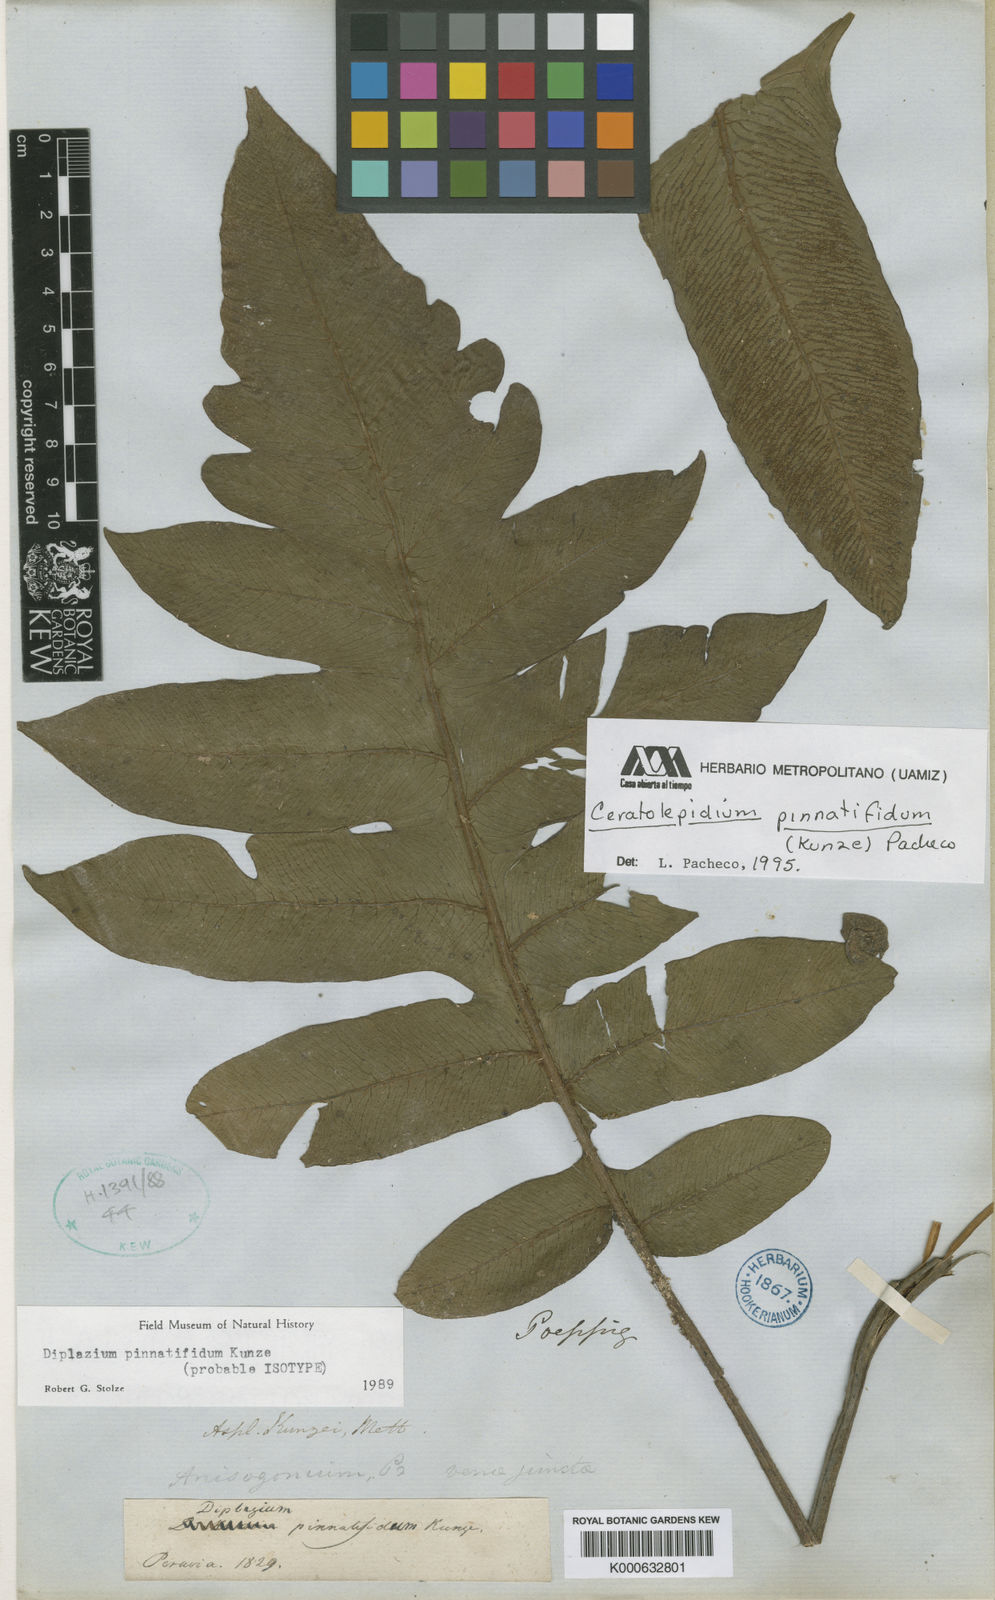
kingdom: Plantae
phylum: Tracheophyta
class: Polypodiopsida
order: Polypodiales
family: Athyriaceae
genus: Diplazium
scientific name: Diplazium pinnatifidum
